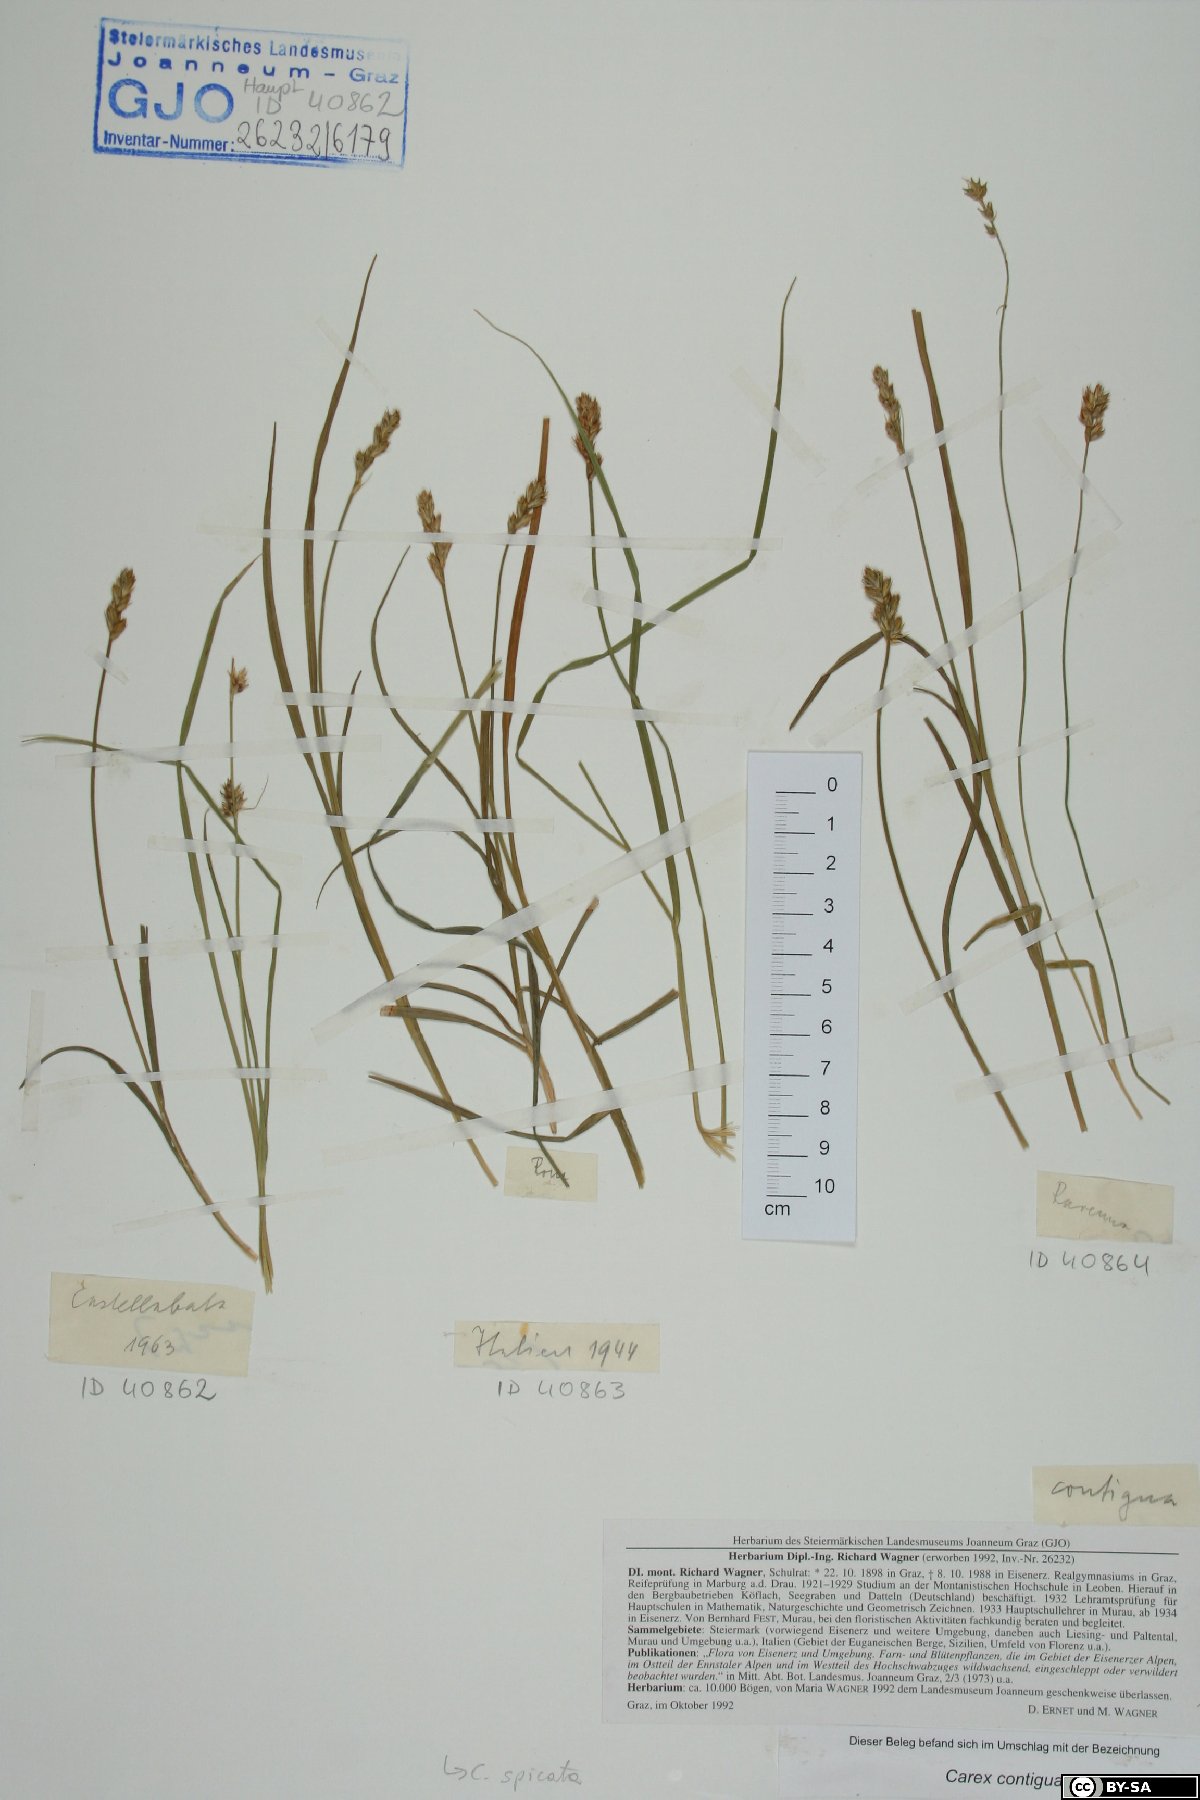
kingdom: Plantae
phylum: Tracheophyta
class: Liliopsida
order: Poales
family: Cyperaceae
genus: Carex
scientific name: Carex spicata
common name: Spiked sedge
